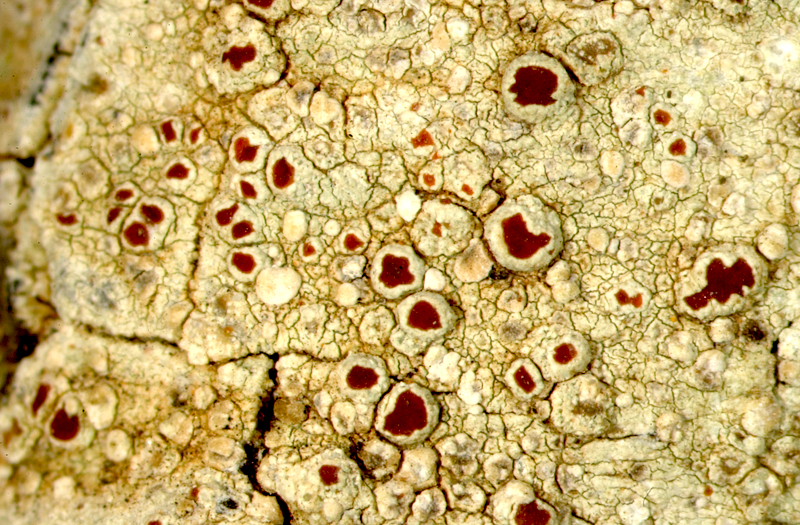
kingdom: Fungi
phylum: Ascomycota
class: Lecanoromycetes
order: Teloschistales
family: Teloschistaceae
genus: Caloplaca
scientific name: Caloplaca
